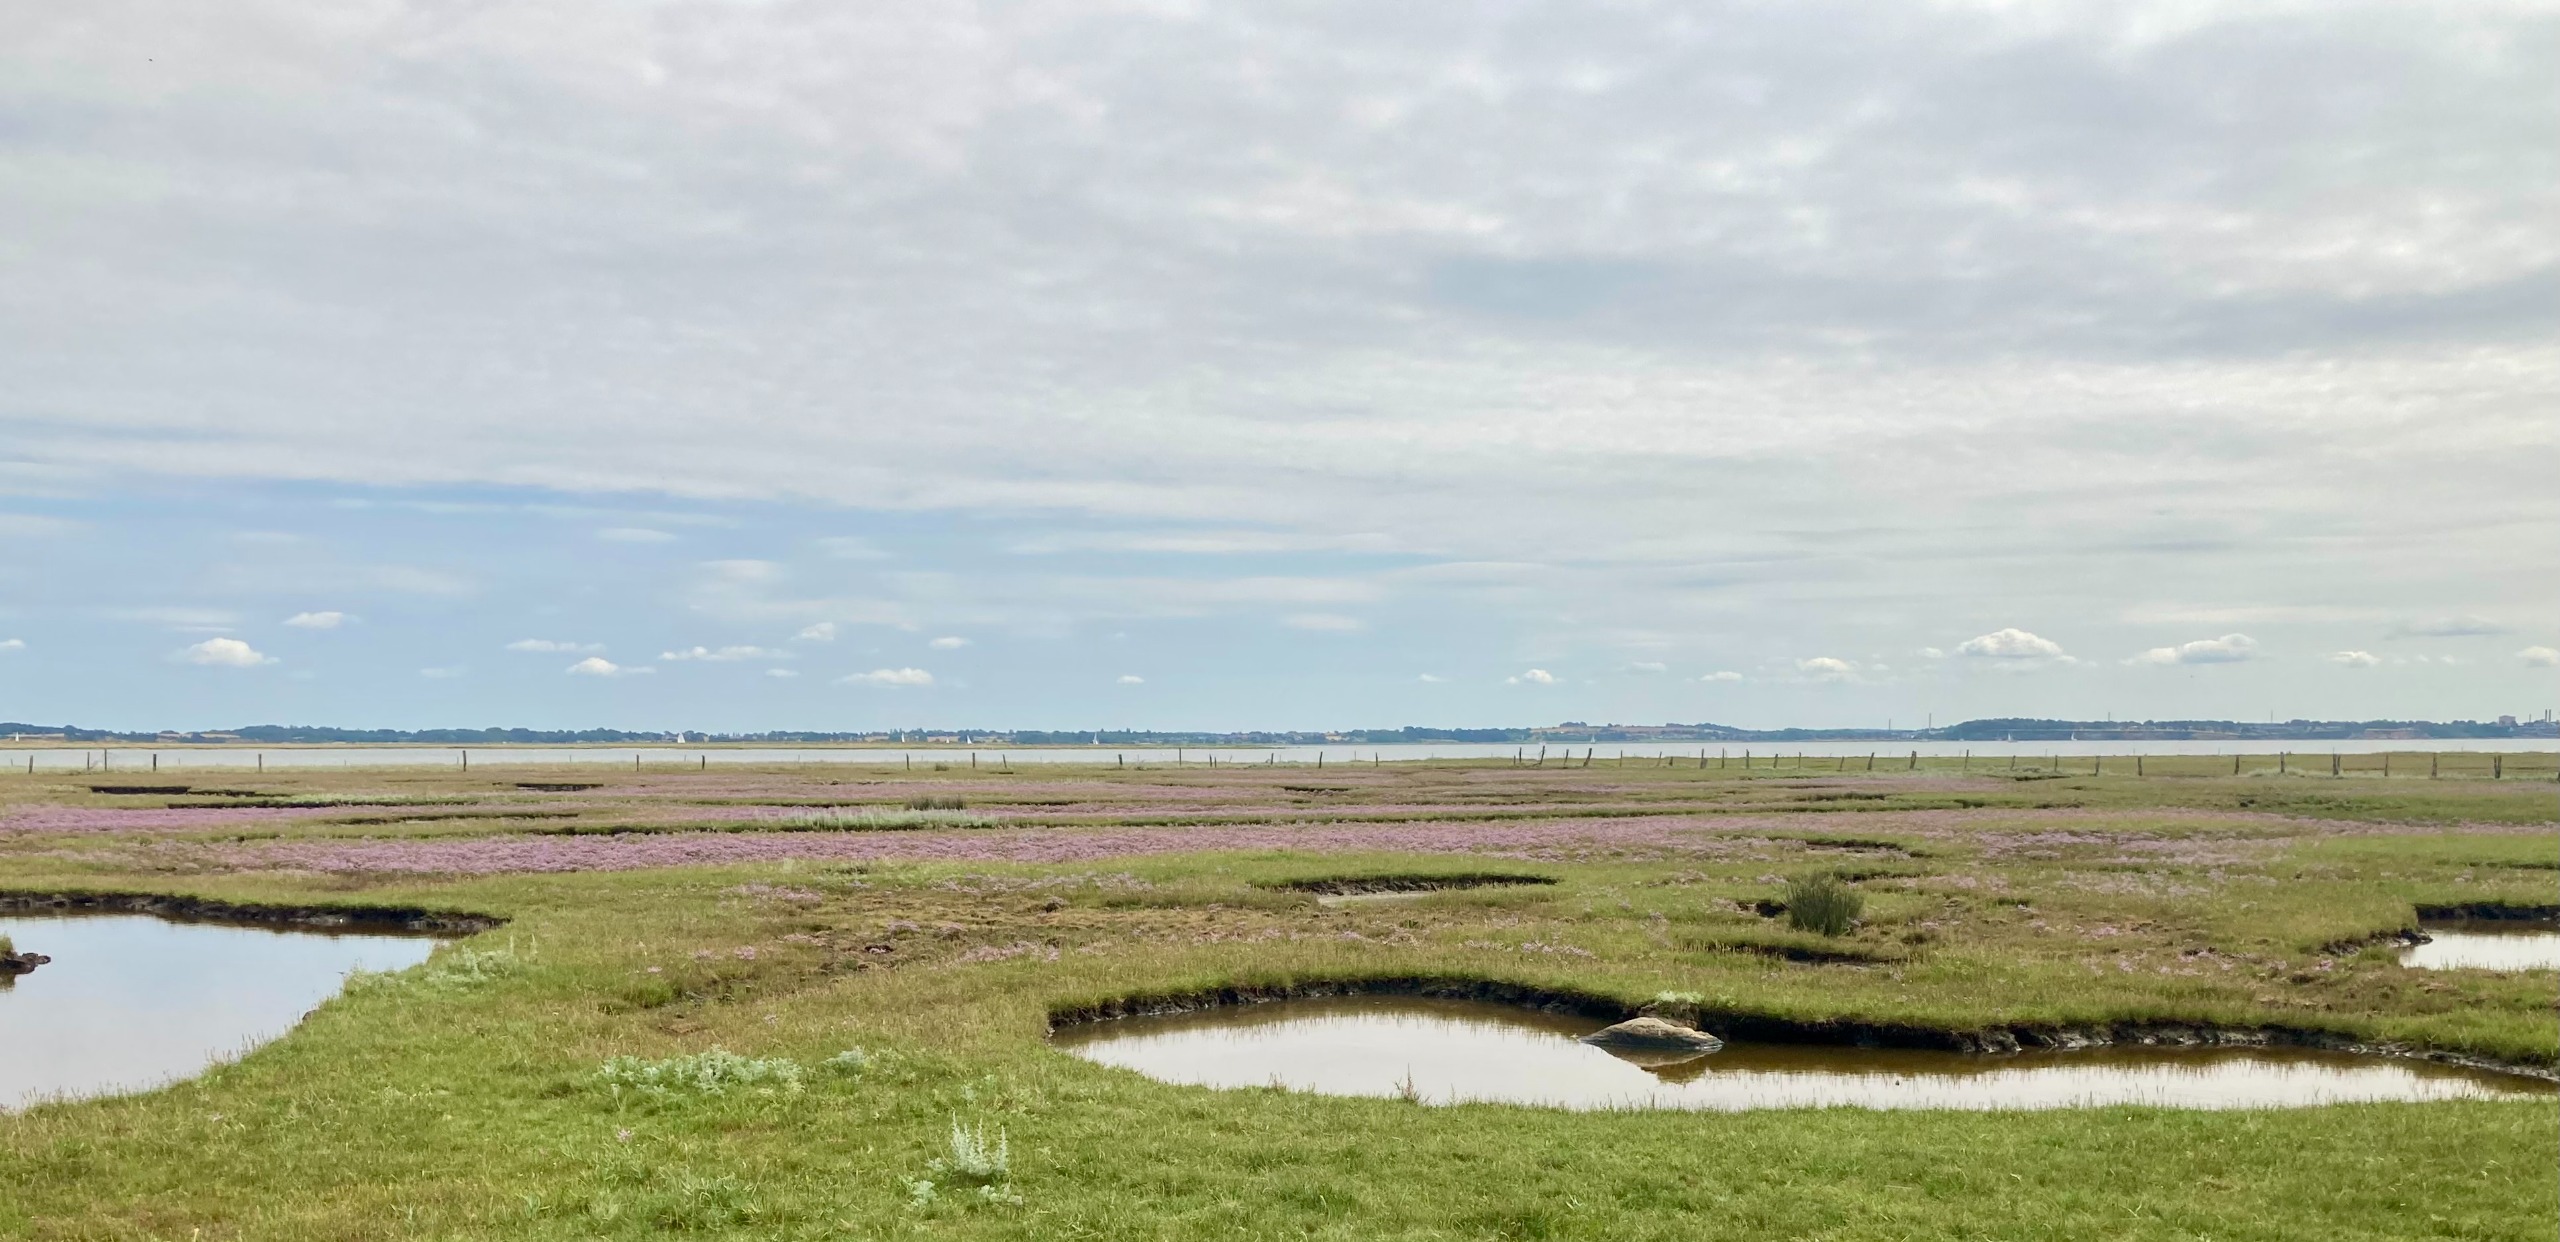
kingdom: Plantae
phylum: Tracheophyta
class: Magnoliopsida
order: Caryophyllales
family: Plumbaginaceae
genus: Limonium
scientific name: Limonium humile
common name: Lav hindebæger
